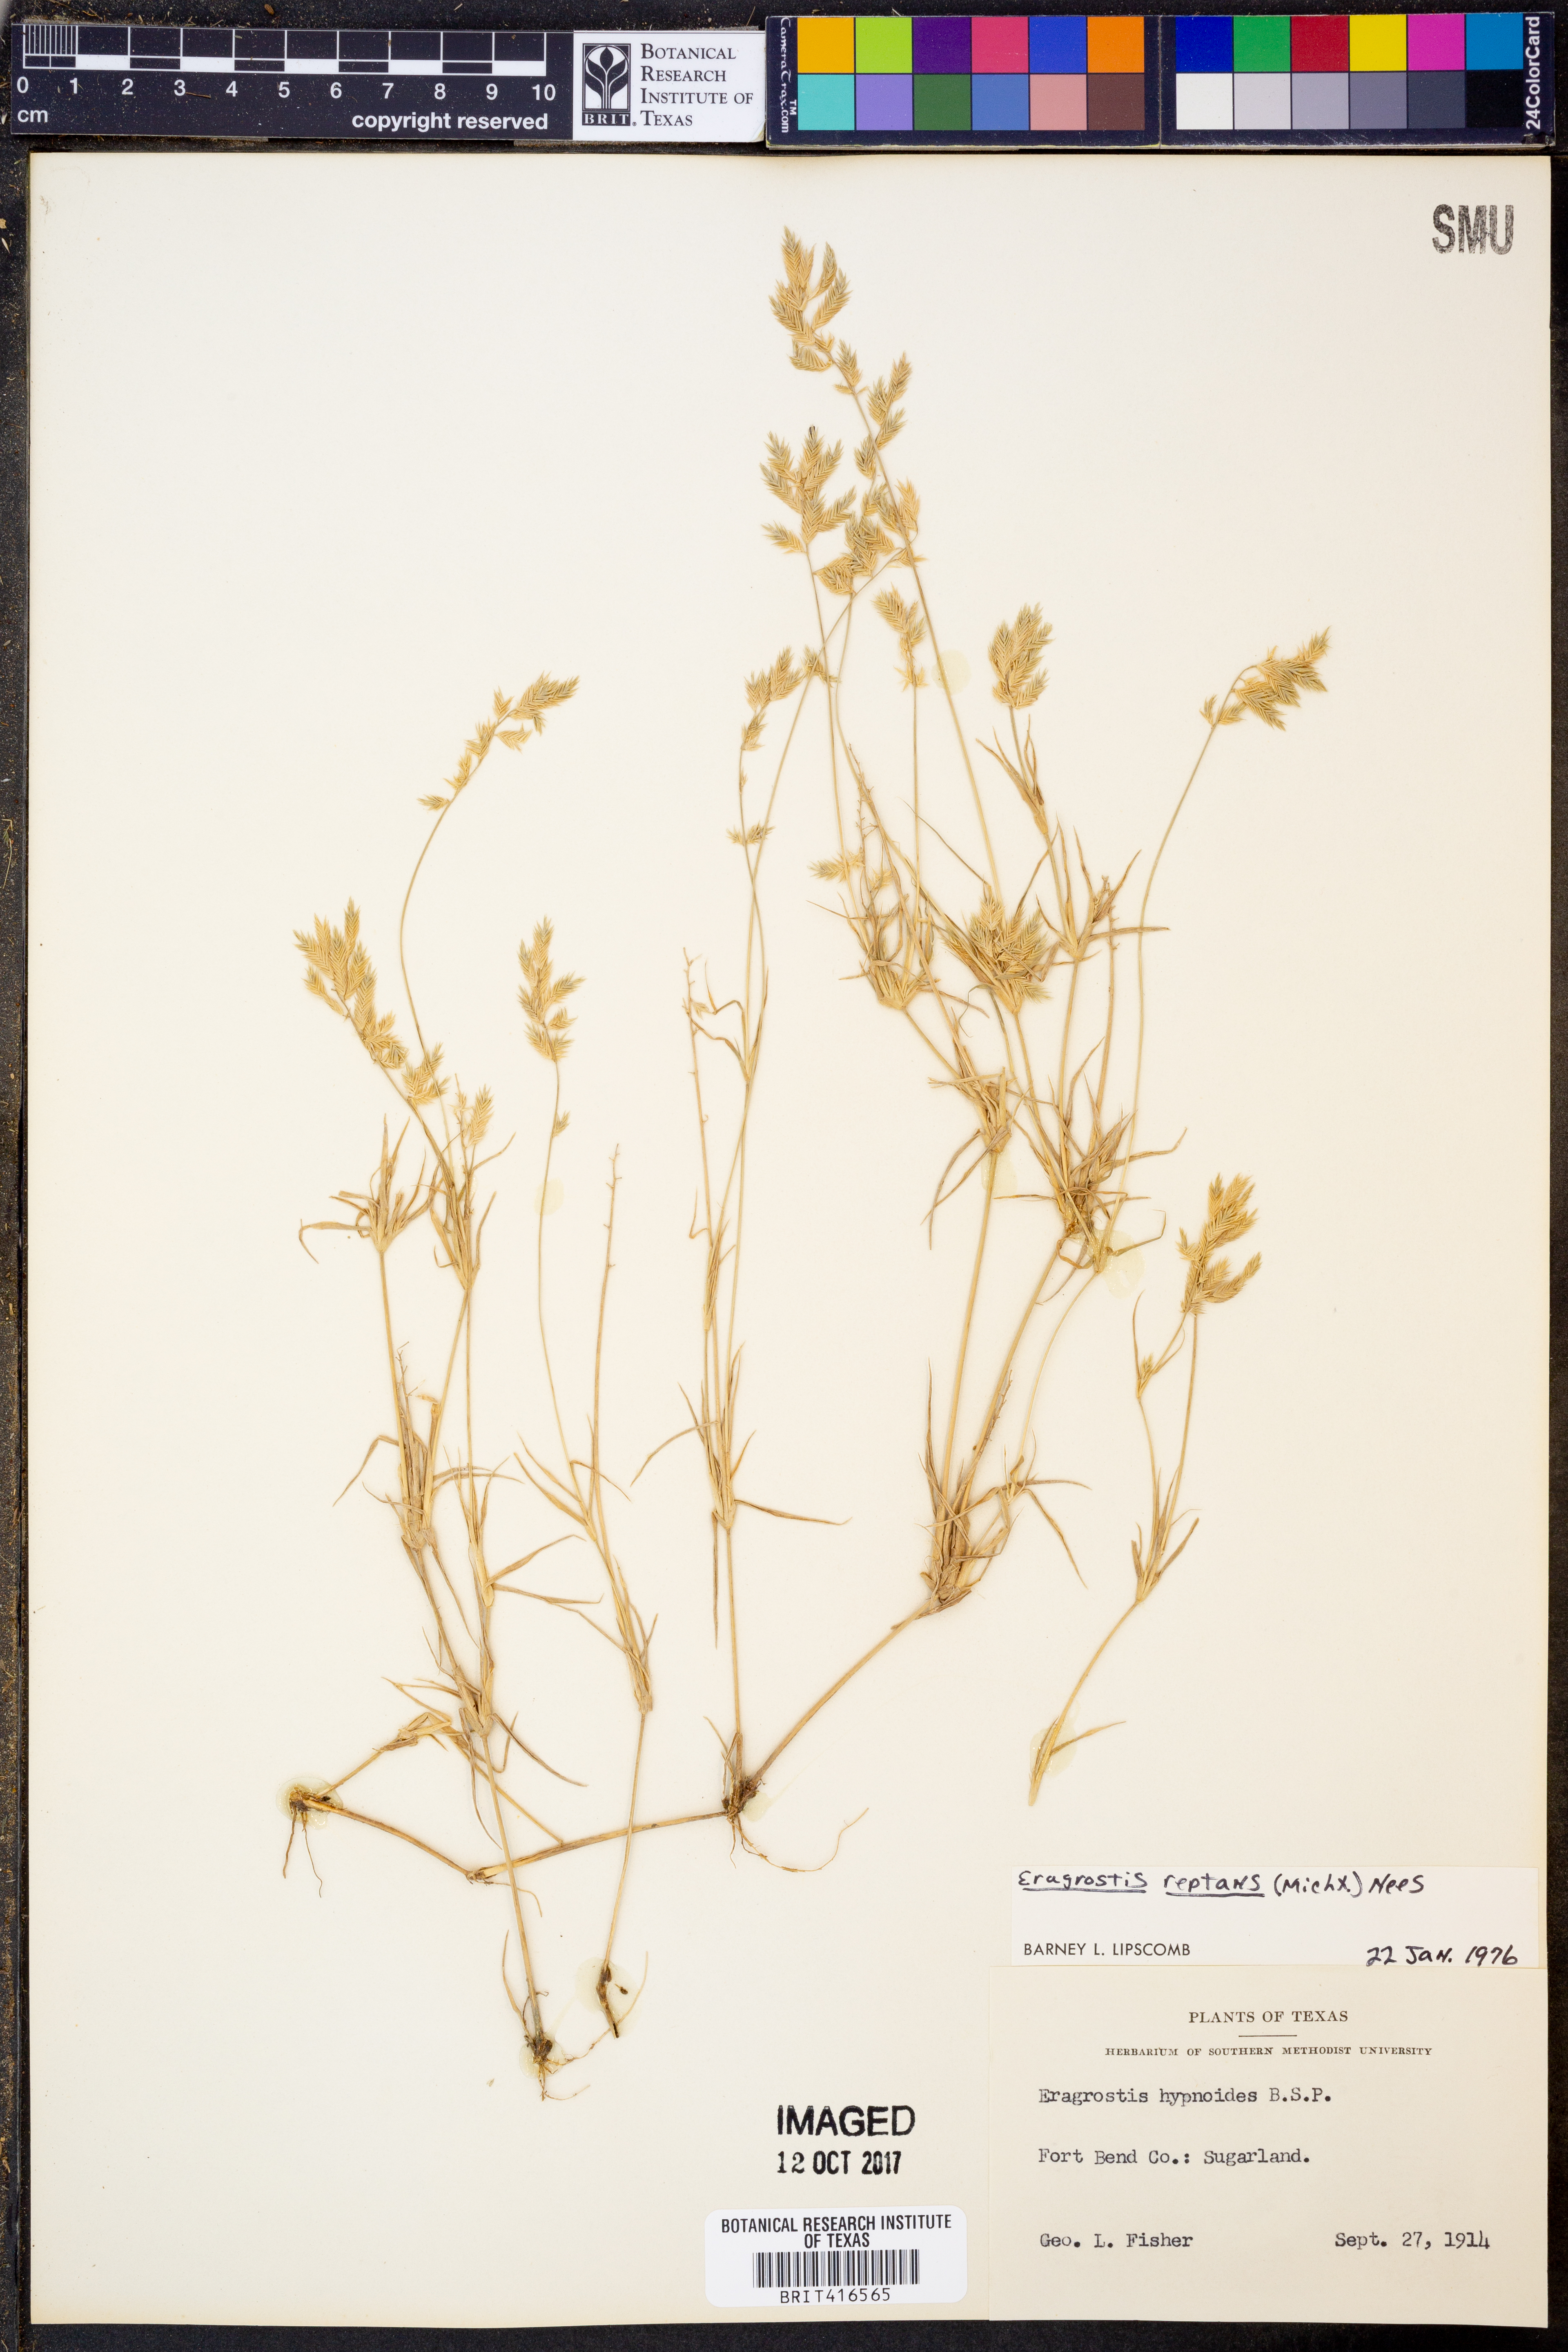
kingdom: Plantae
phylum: Tracheophyta
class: Liliopsida
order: Poales
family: Poaceae
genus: Eragrostis
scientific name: Eragrostis reptans
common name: Creeping love grass
